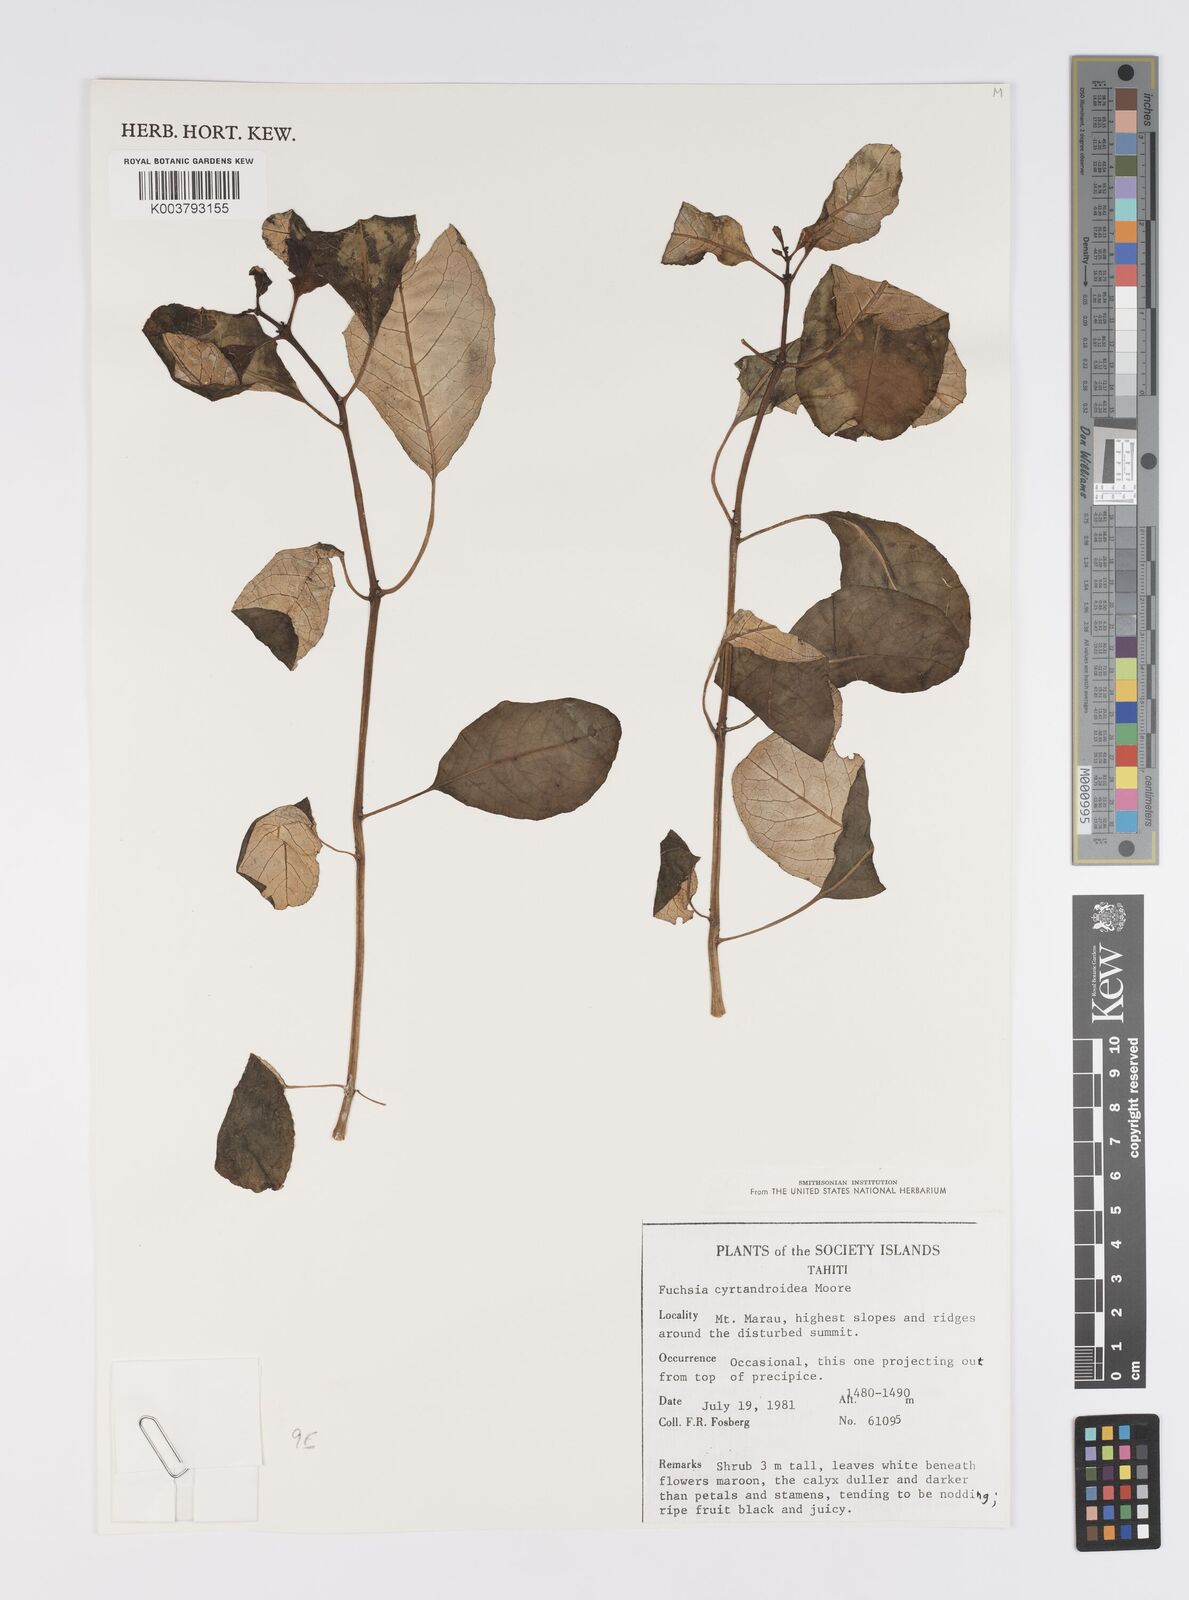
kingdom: Plantae
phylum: Tracheophyta
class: Magnoliopsida
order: Myrtales
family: Onagraceae
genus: Fuchsia
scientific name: Fuchsia cyrtandroides
